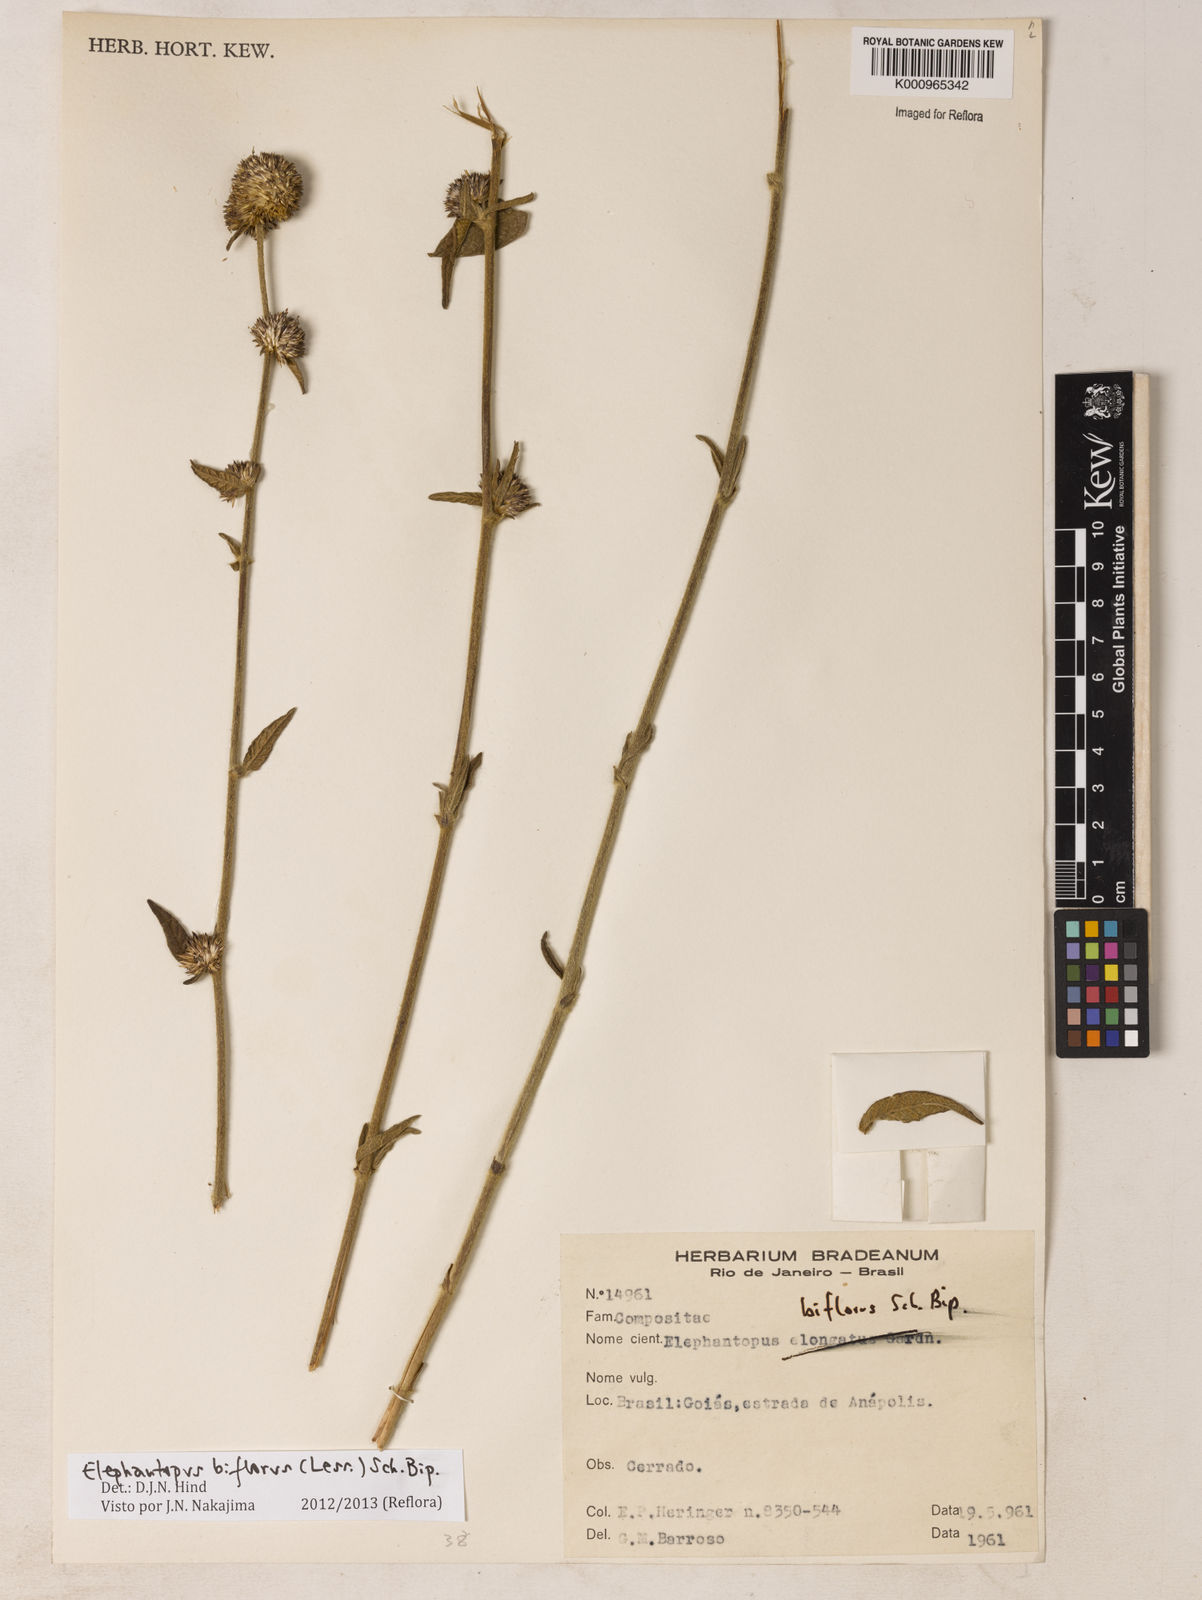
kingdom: Plantae
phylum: Tracheophyta
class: Magnoliopsida
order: Asterales
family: Asteraceae
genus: Elephantopus
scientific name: Elephantopus biflorus
